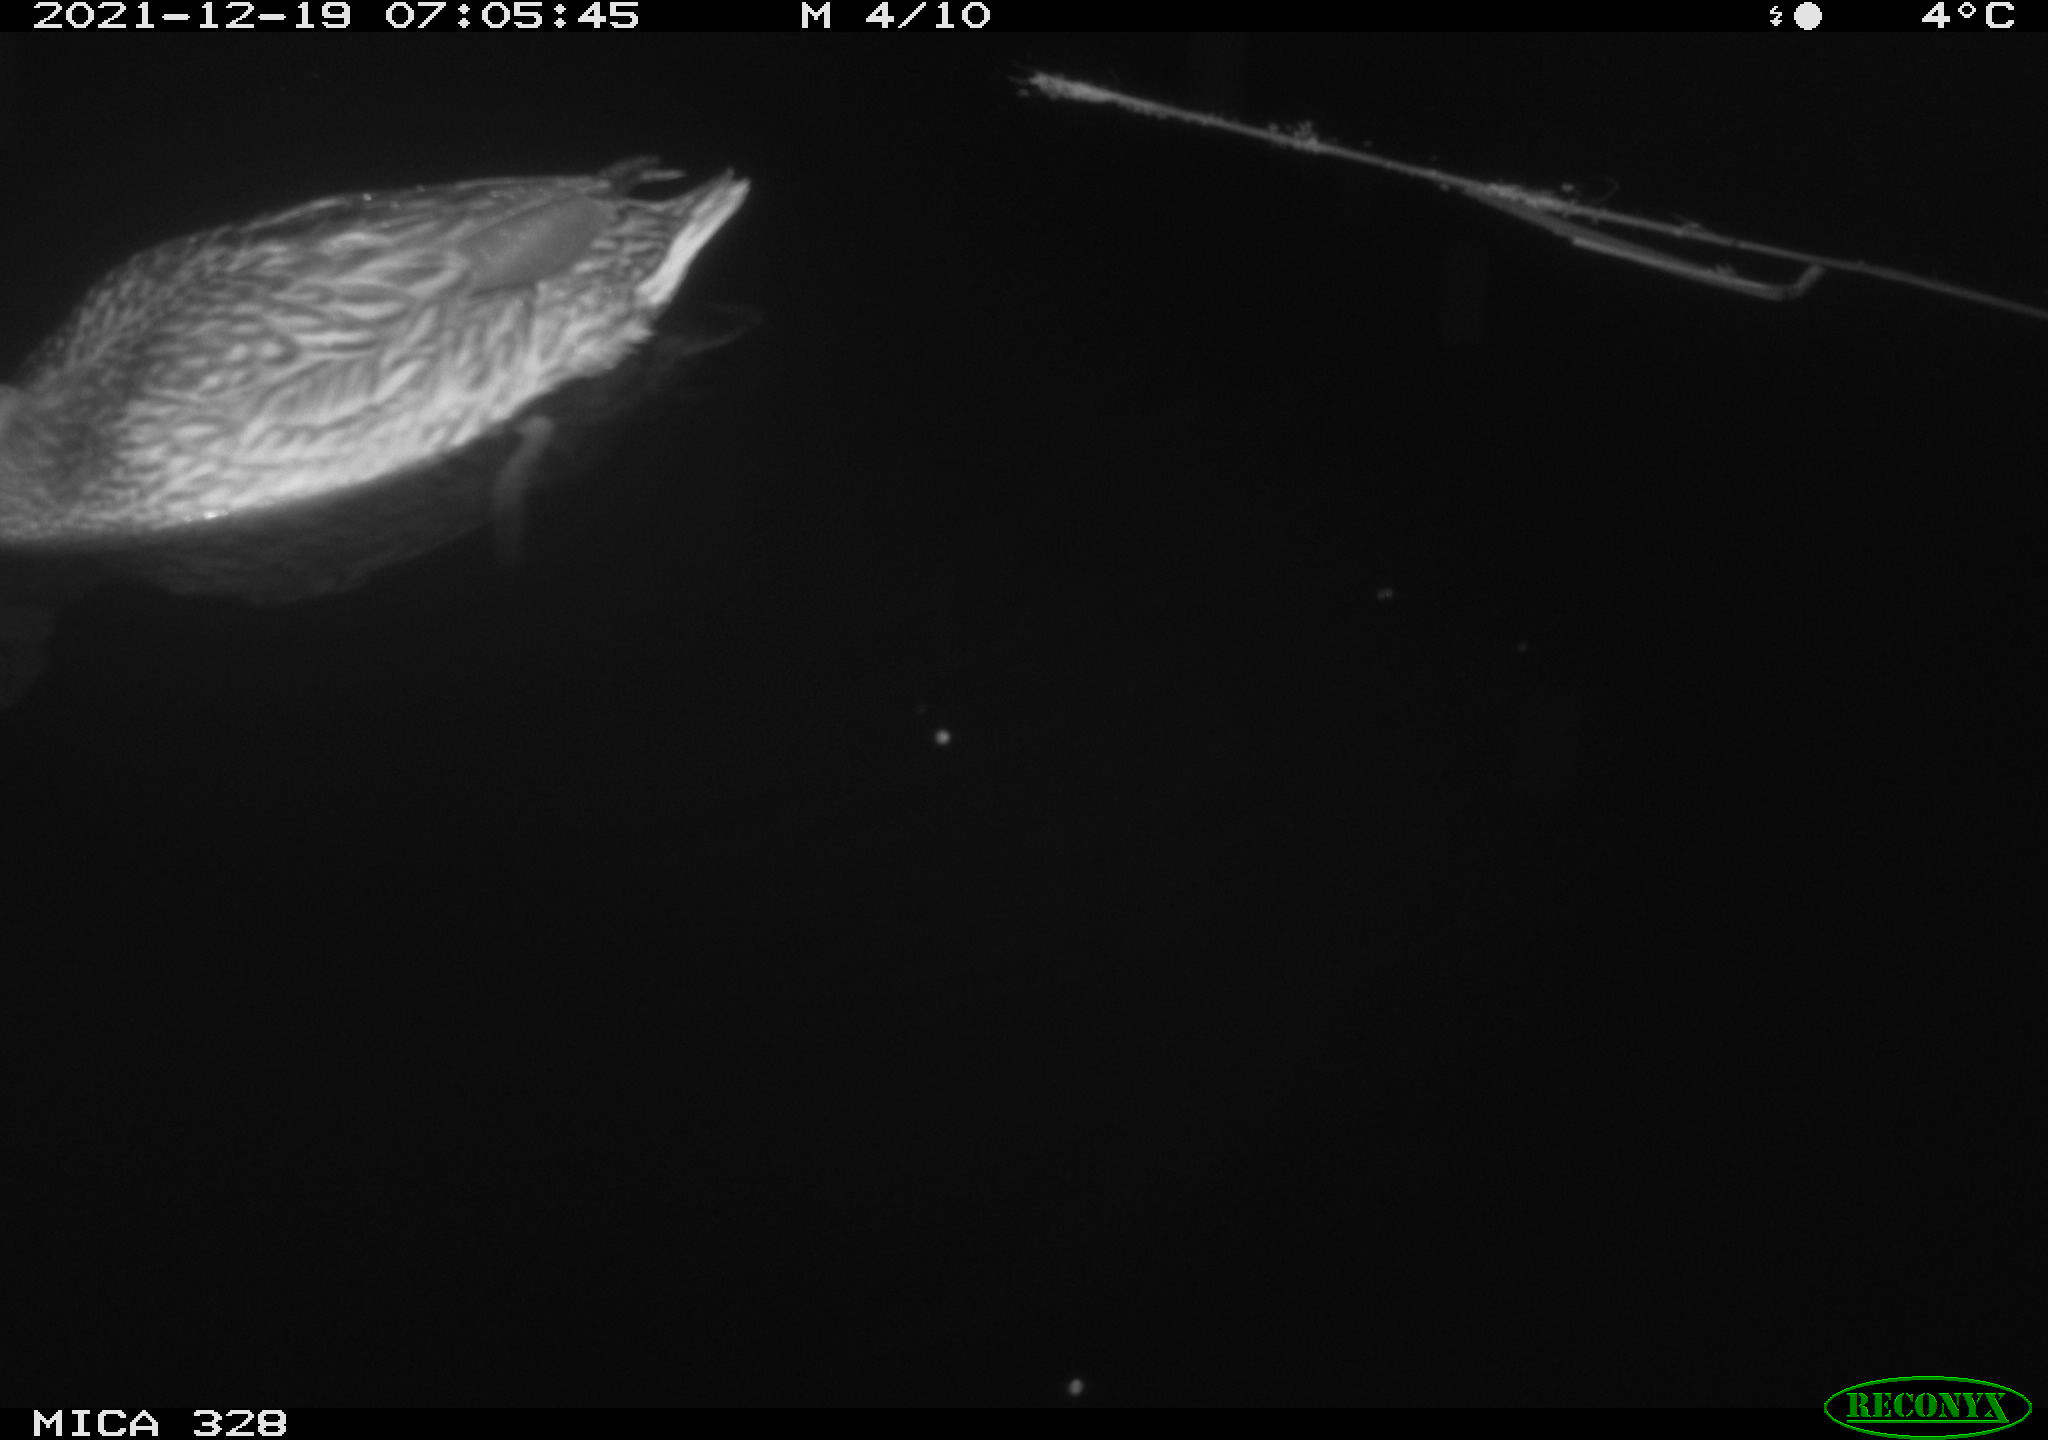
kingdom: Animalia
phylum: Chordata
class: Aves
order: Anseriformes
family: Anatidae
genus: Anas
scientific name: Anas platyrhynchos
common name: Mallard
